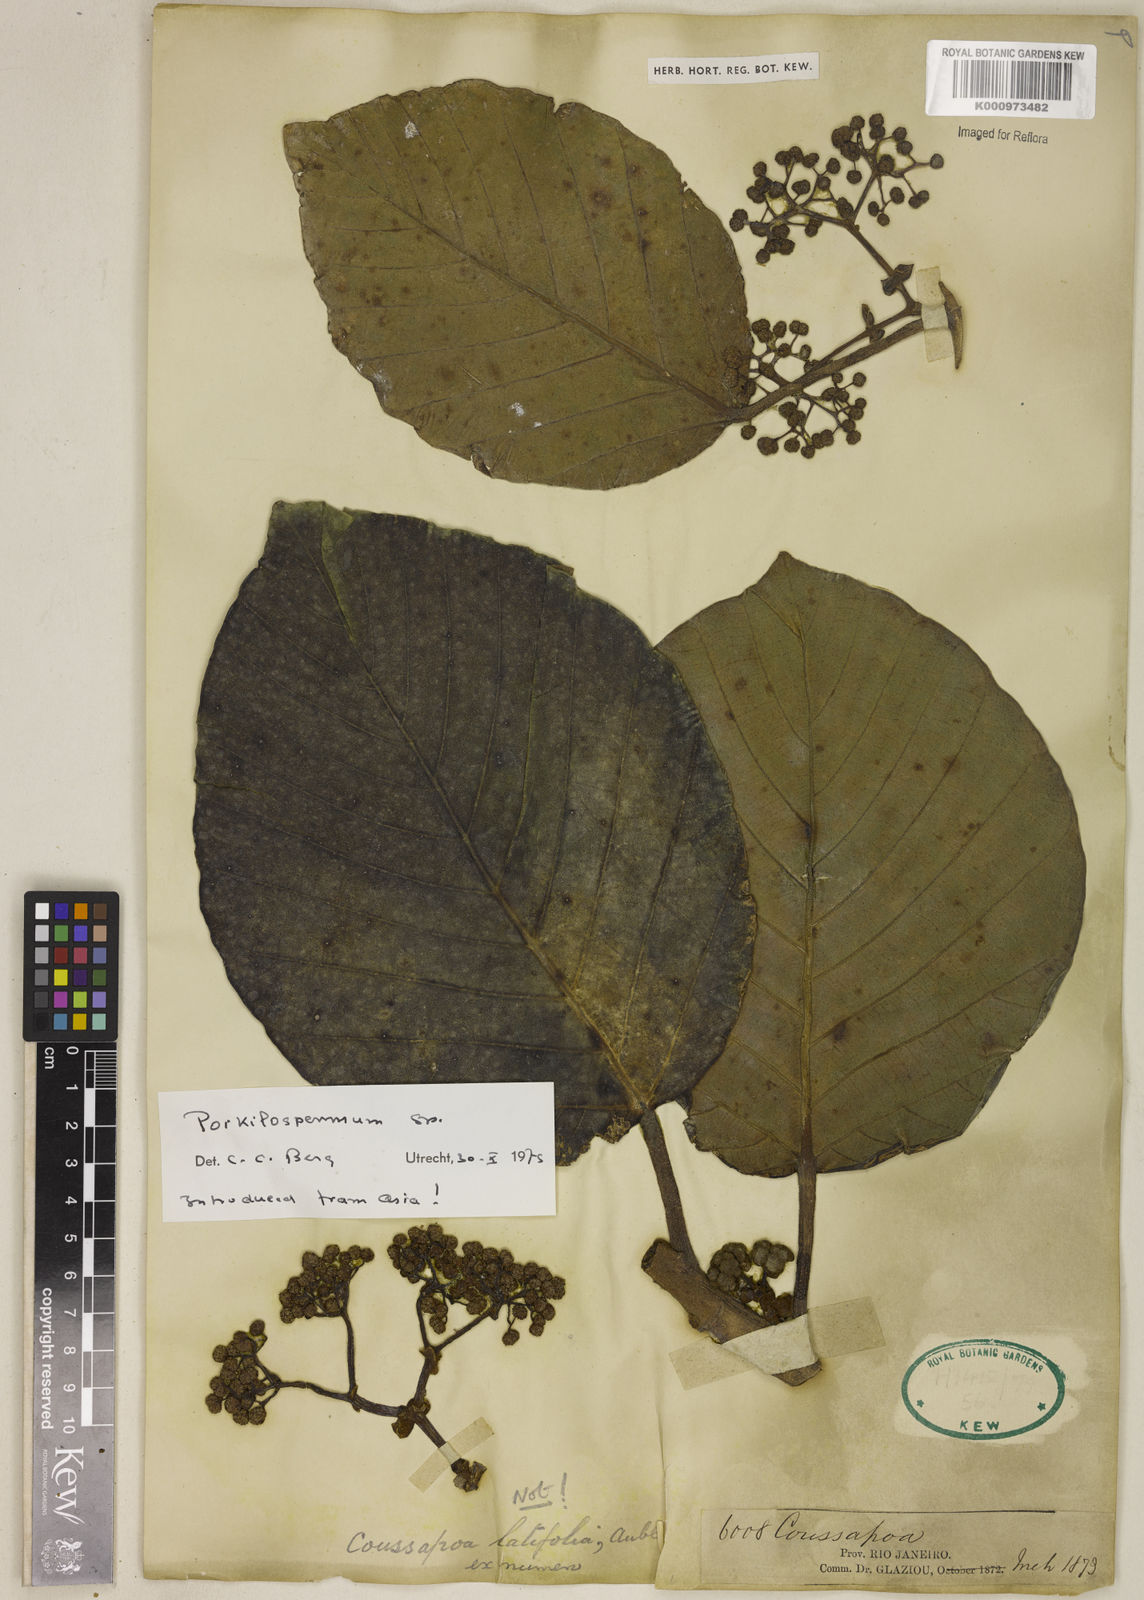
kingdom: Plantae
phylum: Tracheophyta
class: Magnoliopsida
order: Rosales
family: Urticaceae
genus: Poikilospermum
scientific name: Poikilospermum
